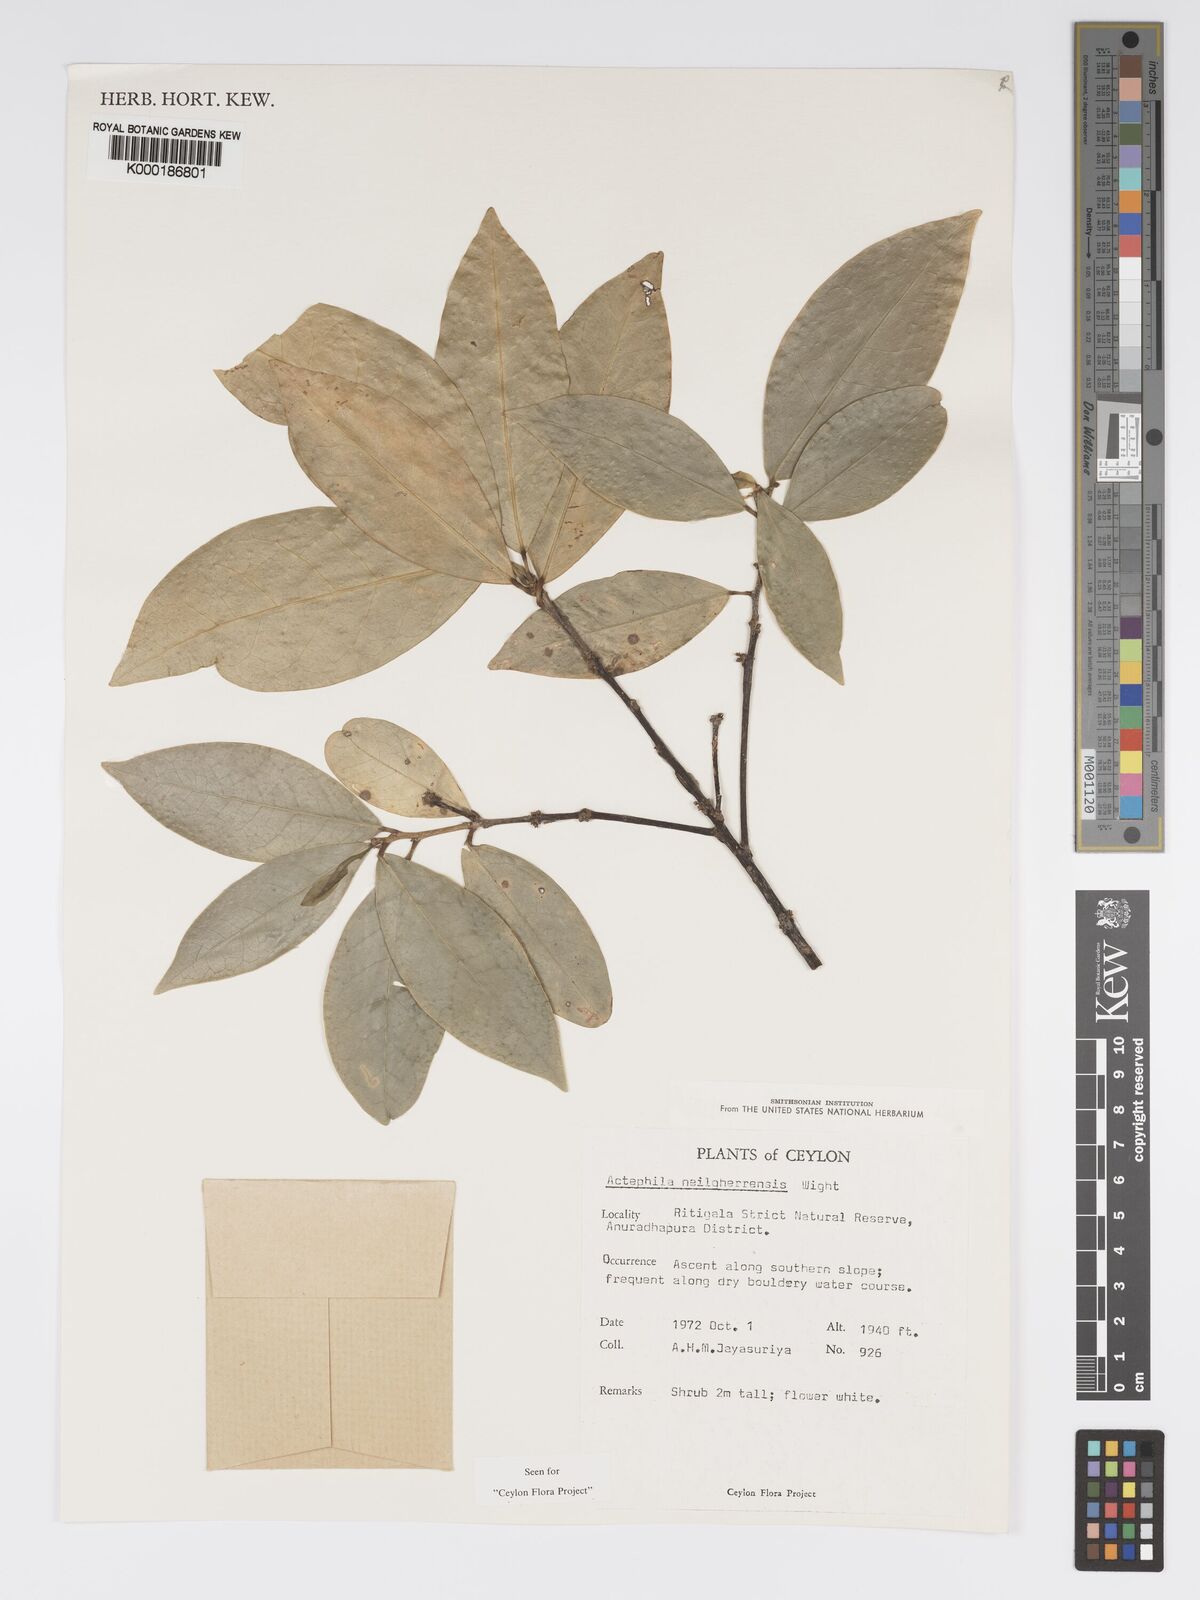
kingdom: Plantae
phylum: Tracheophyta
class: Magnoliopsida
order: Malpighiales
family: Phyllanthaceae
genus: Actephila
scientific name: Actephila excelsa
